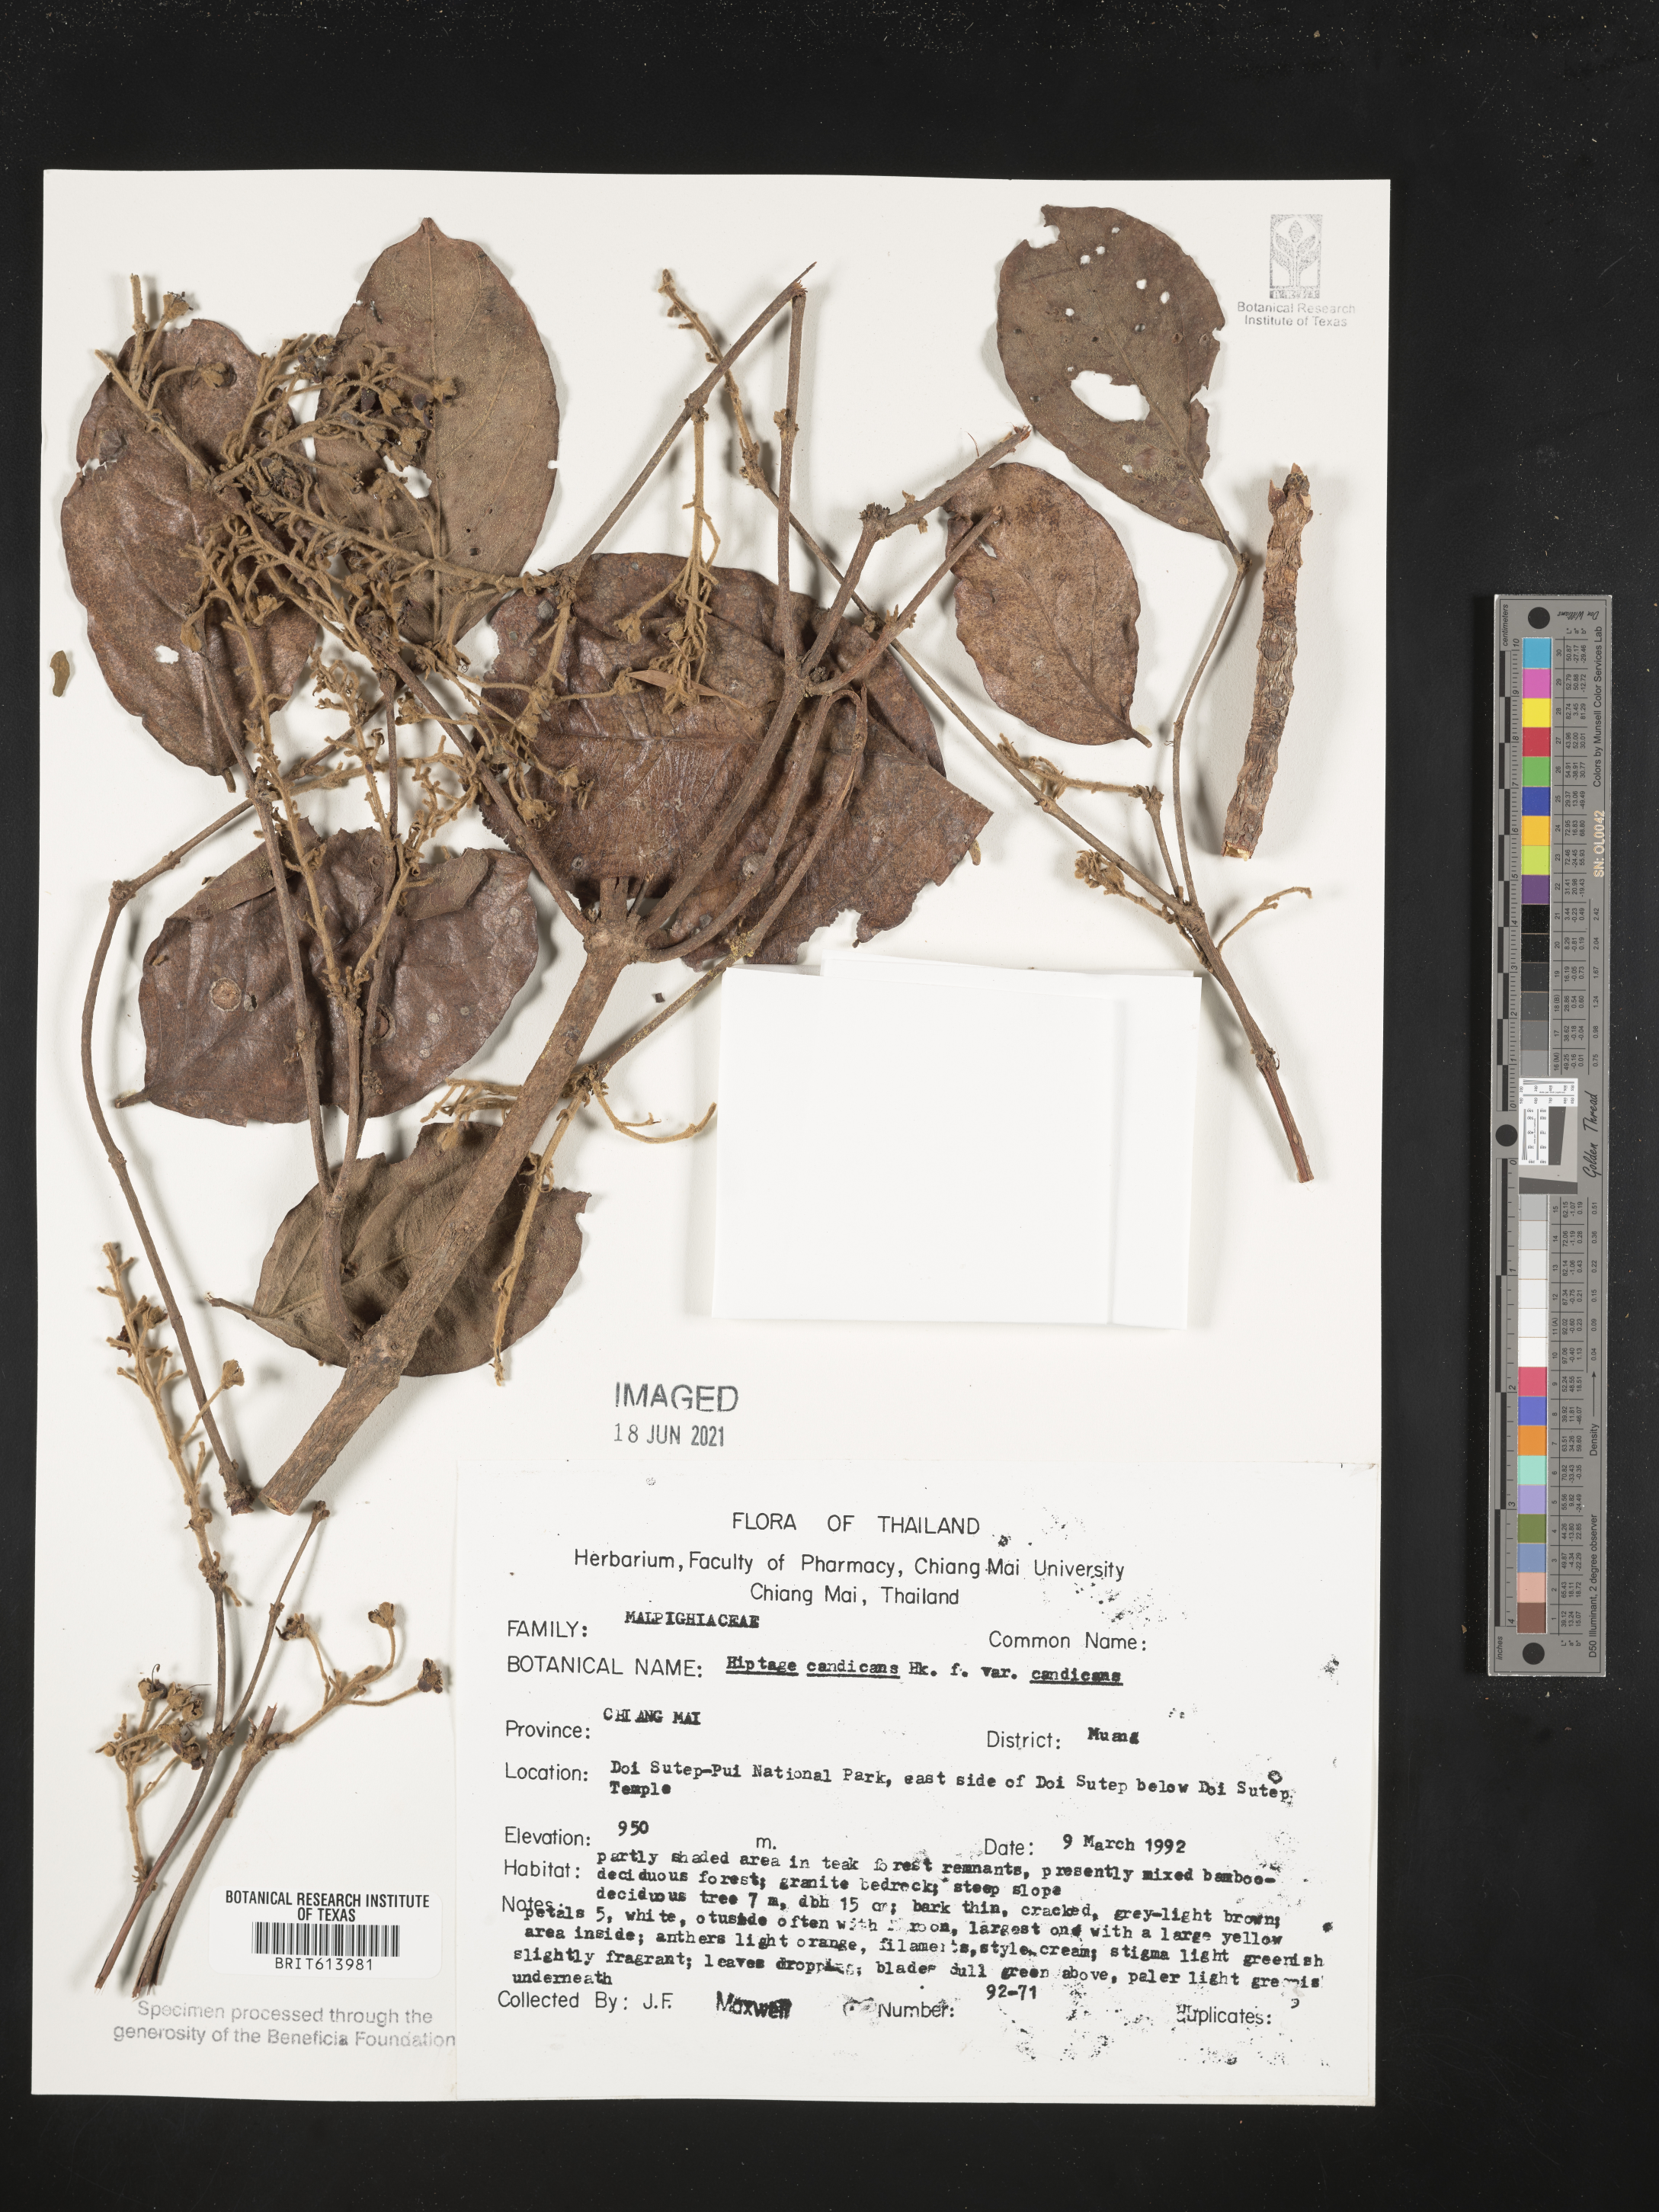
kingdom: Plantae
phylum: Tracheophyta
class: Magnoliopsida
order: Malpighiales
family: Malpighiaceae
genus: Hiptage
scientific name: Hiptage candicans
